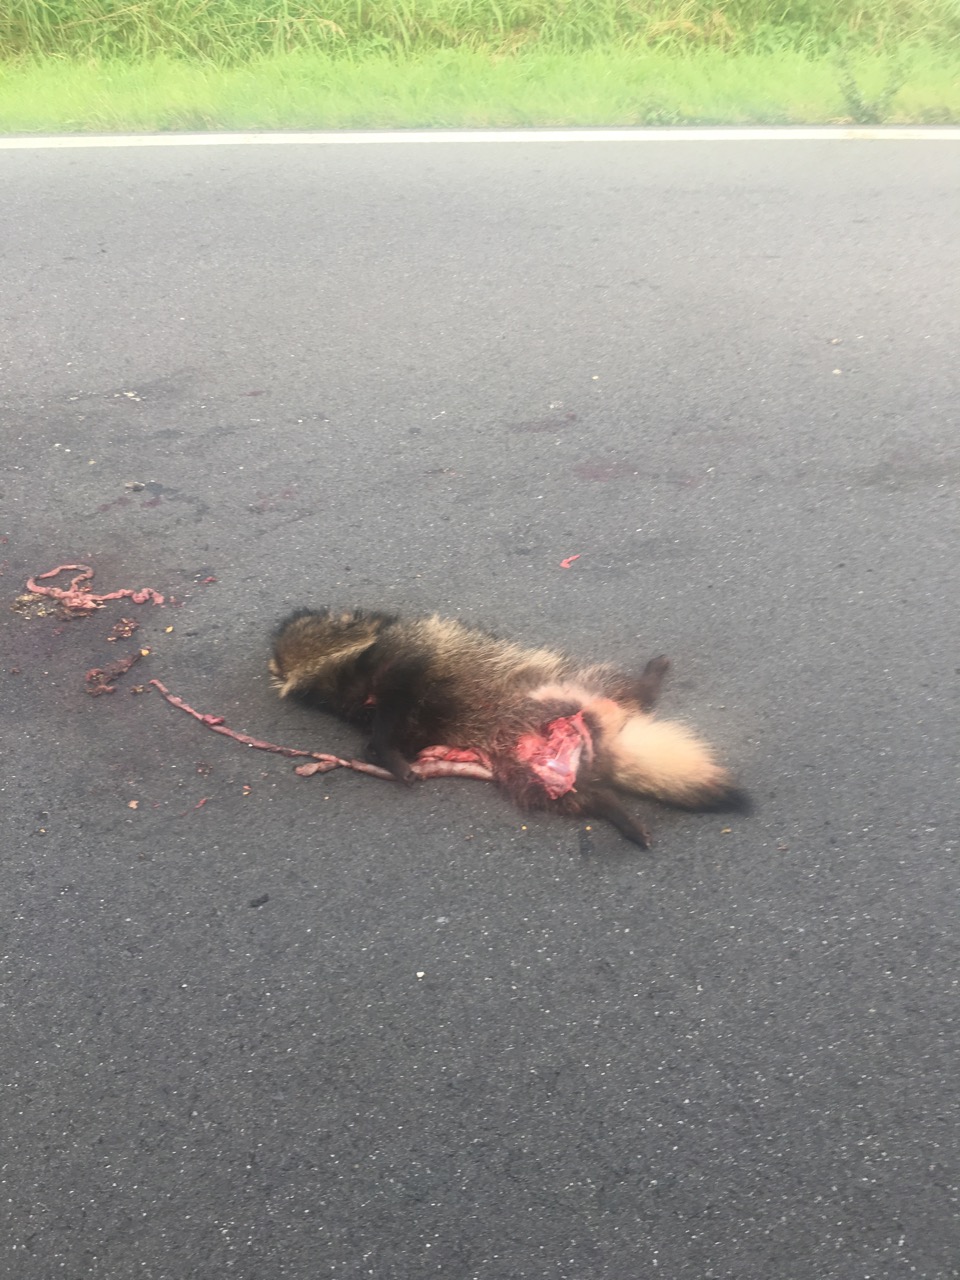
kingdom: Animalia
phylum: Chordata
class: Mammalia
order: Carnivora
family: Canidae
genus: Nyctereutes
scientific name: Nyctereutes procyonoides
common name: Raccoon dog
